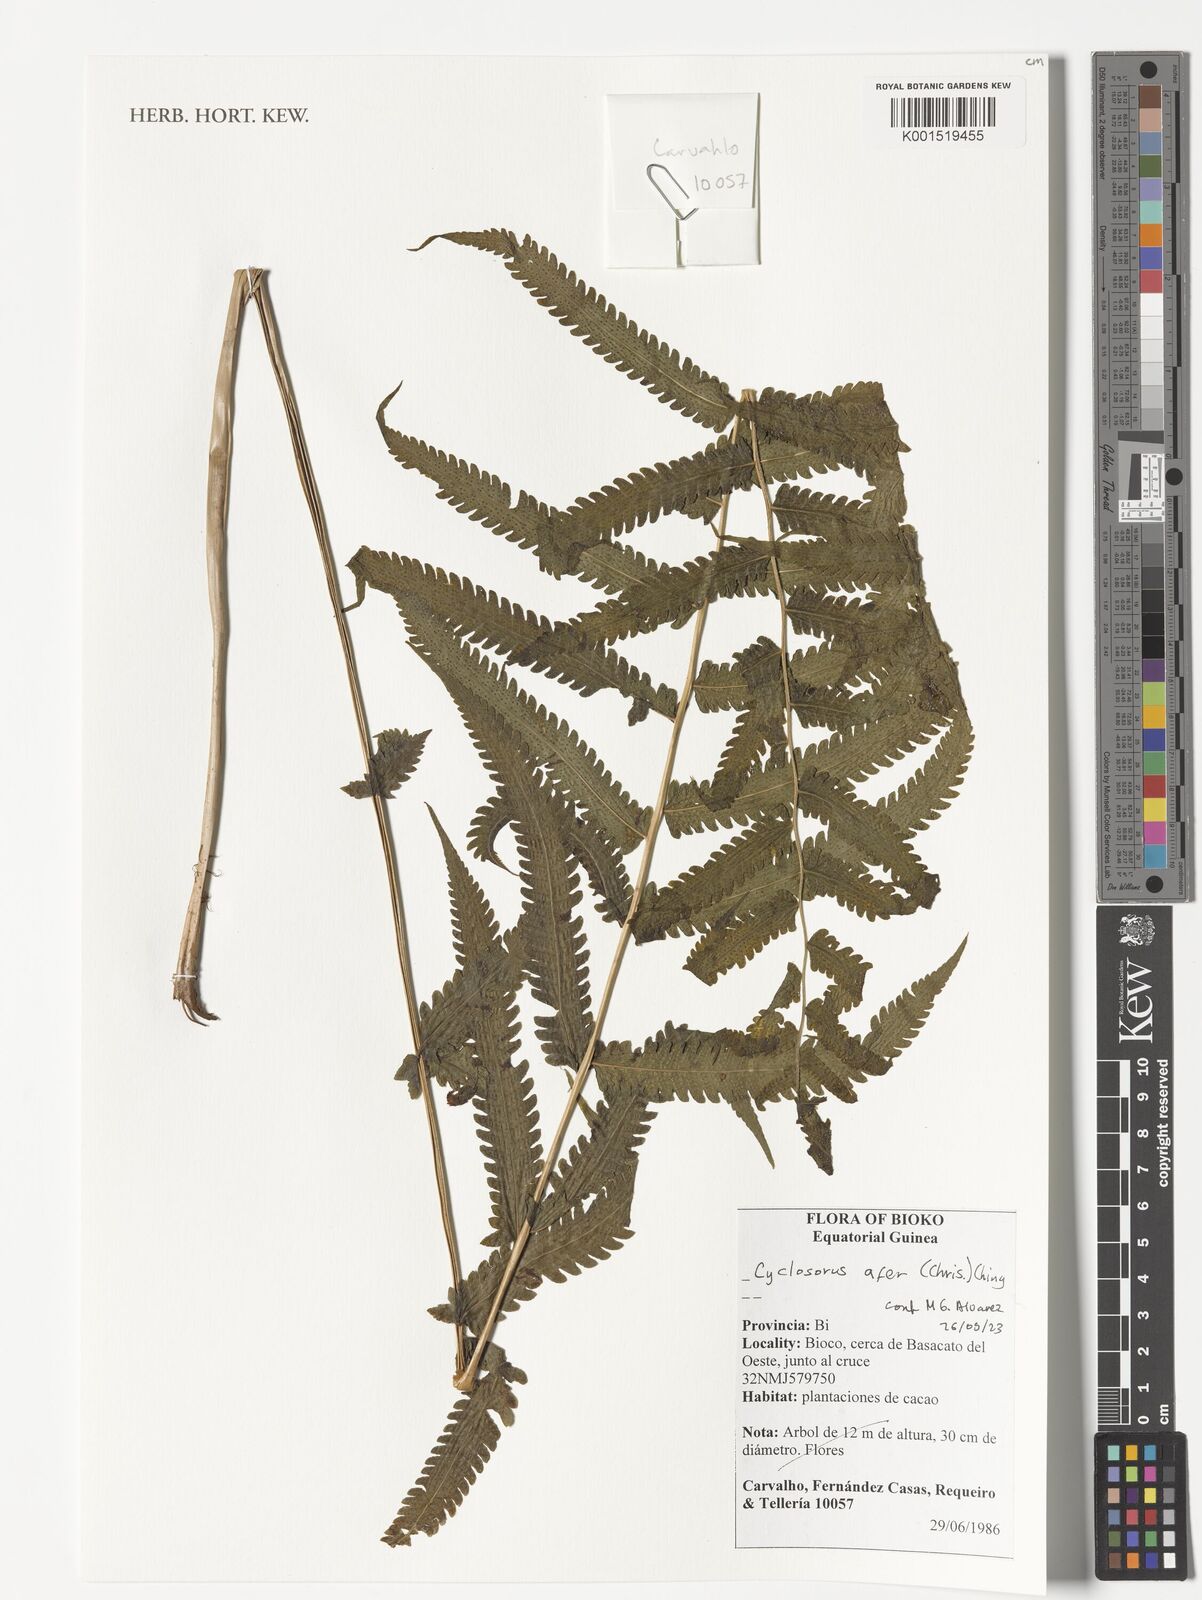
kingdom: Plantae
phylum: Tracheophyta
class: Polypodiopsida
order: Polypodiales
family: Thelypteridaceae
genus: Cyclosorus
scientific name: Cyclosorus
